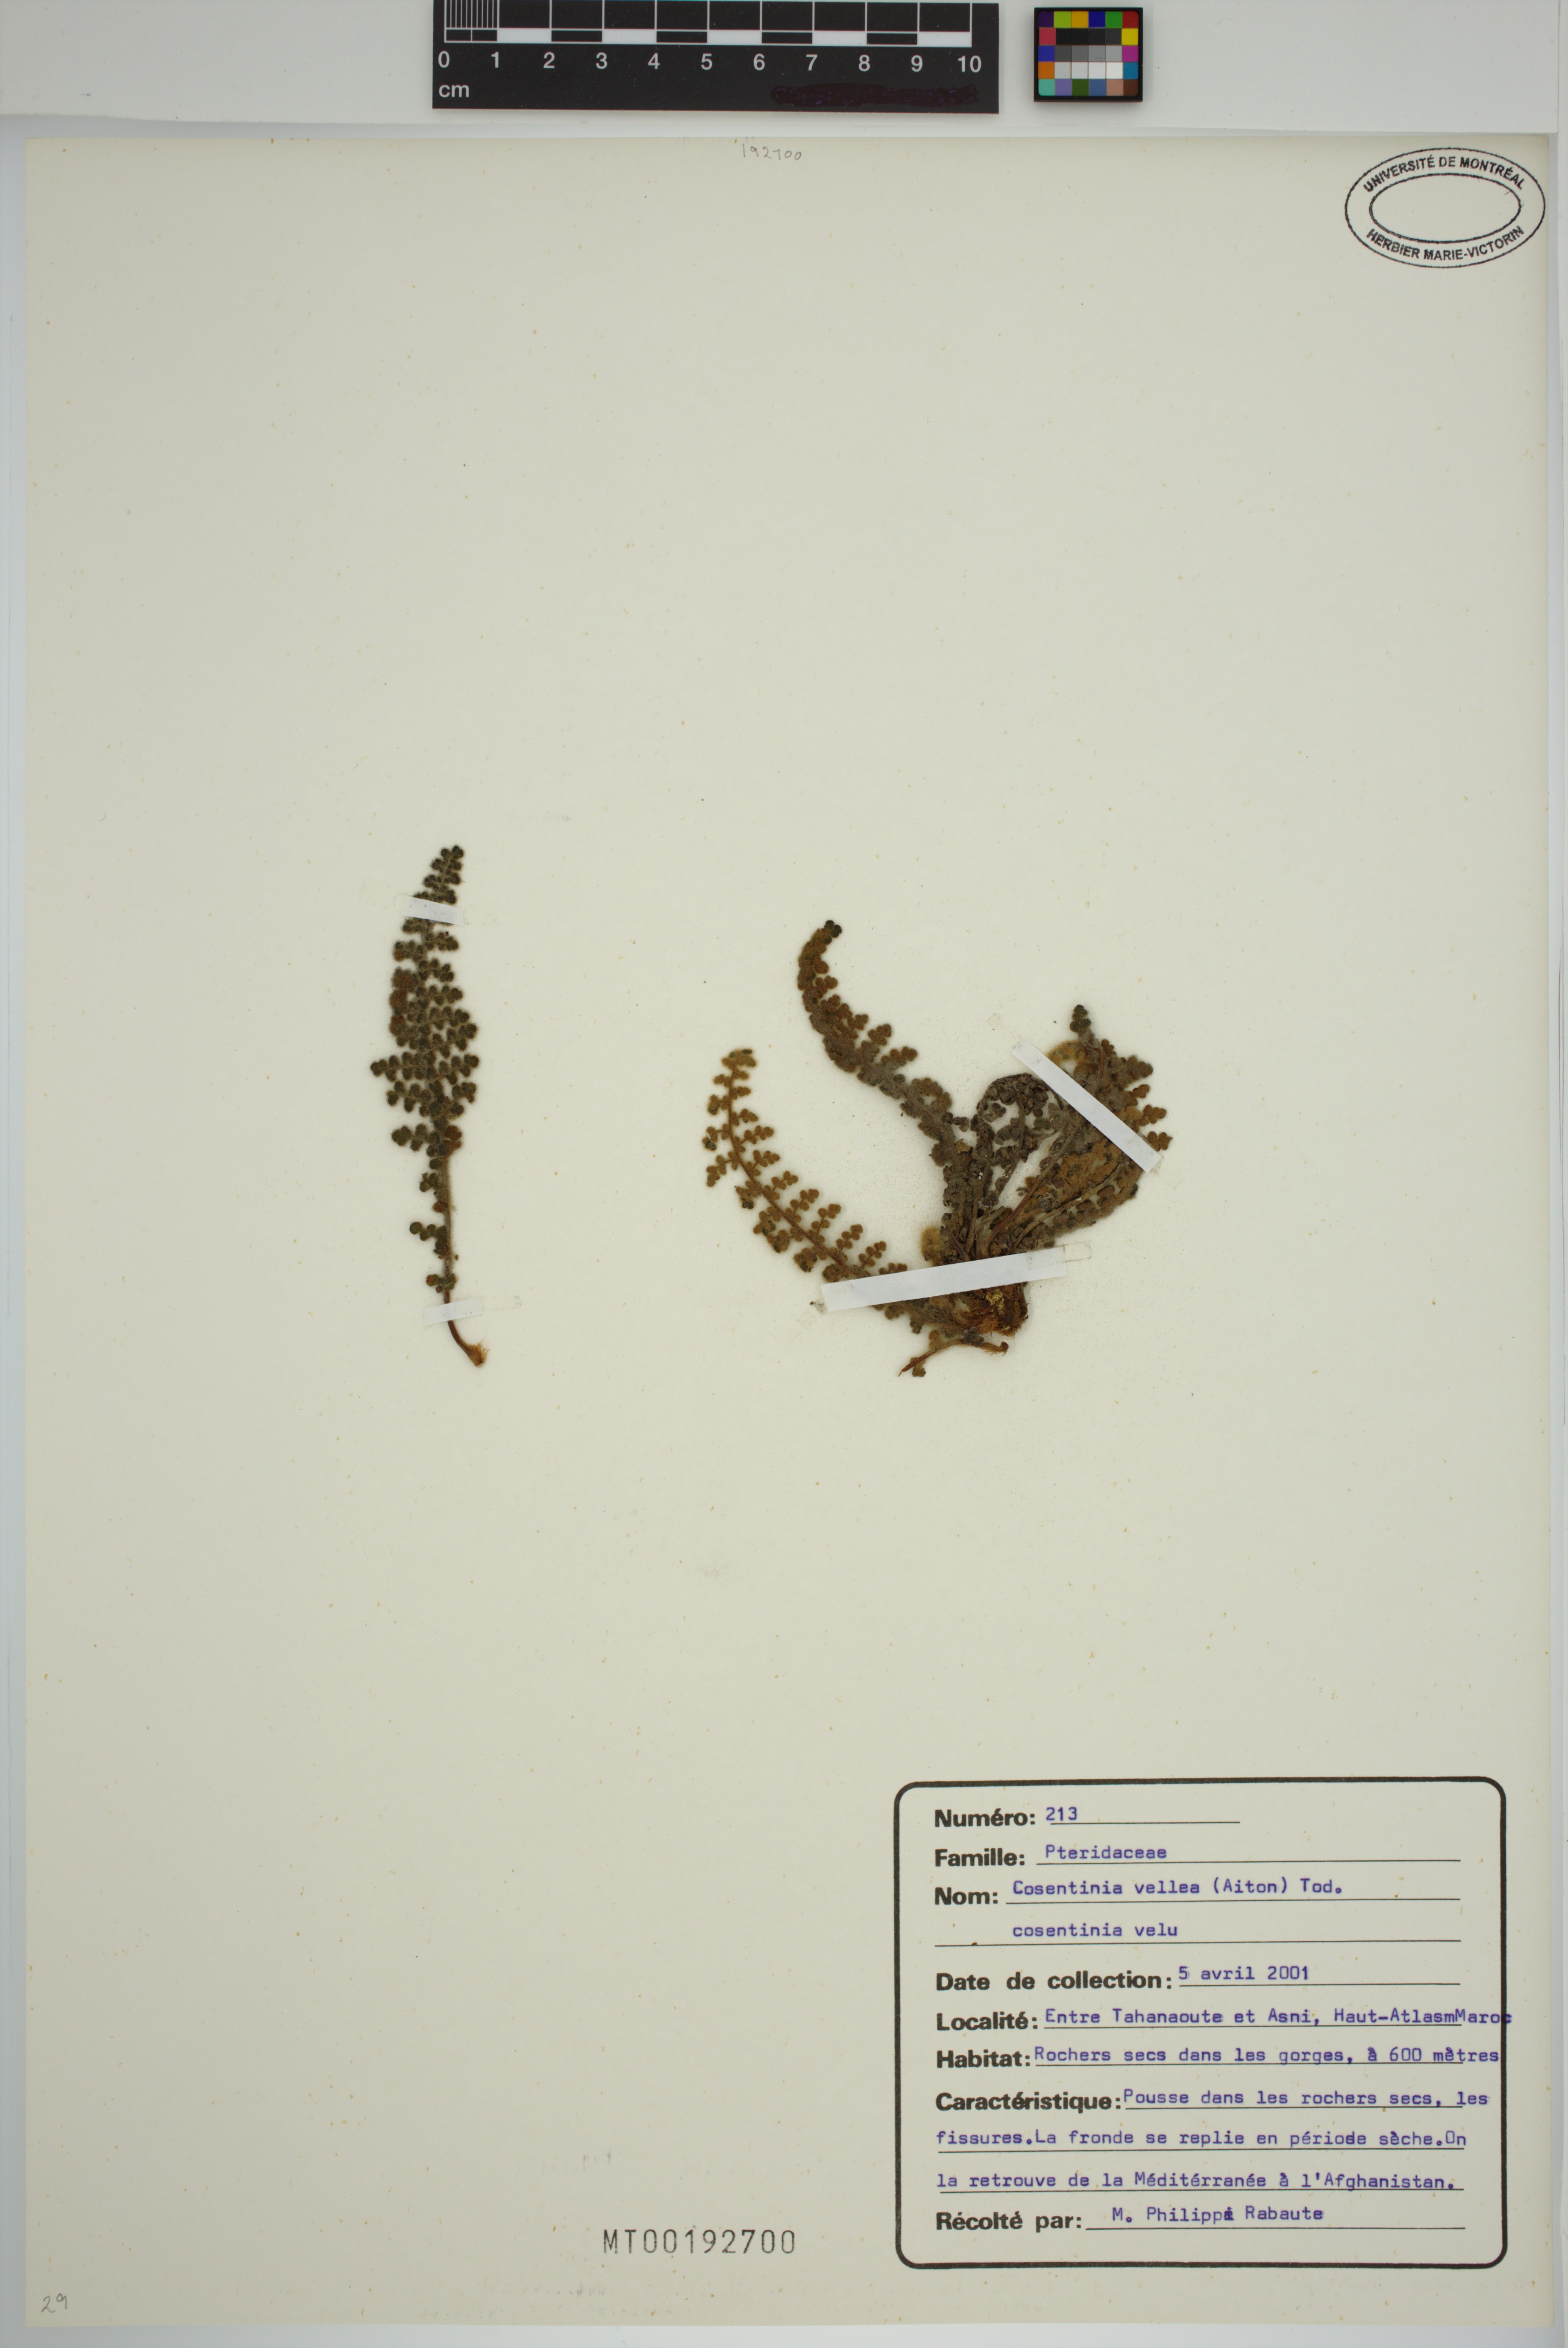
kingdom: Plantae
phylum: Tracheophyta
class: Polypodiopsida
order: Polypodiales
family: Pteridaceae
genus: Cosentinia
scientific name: Cosentinia vellea
